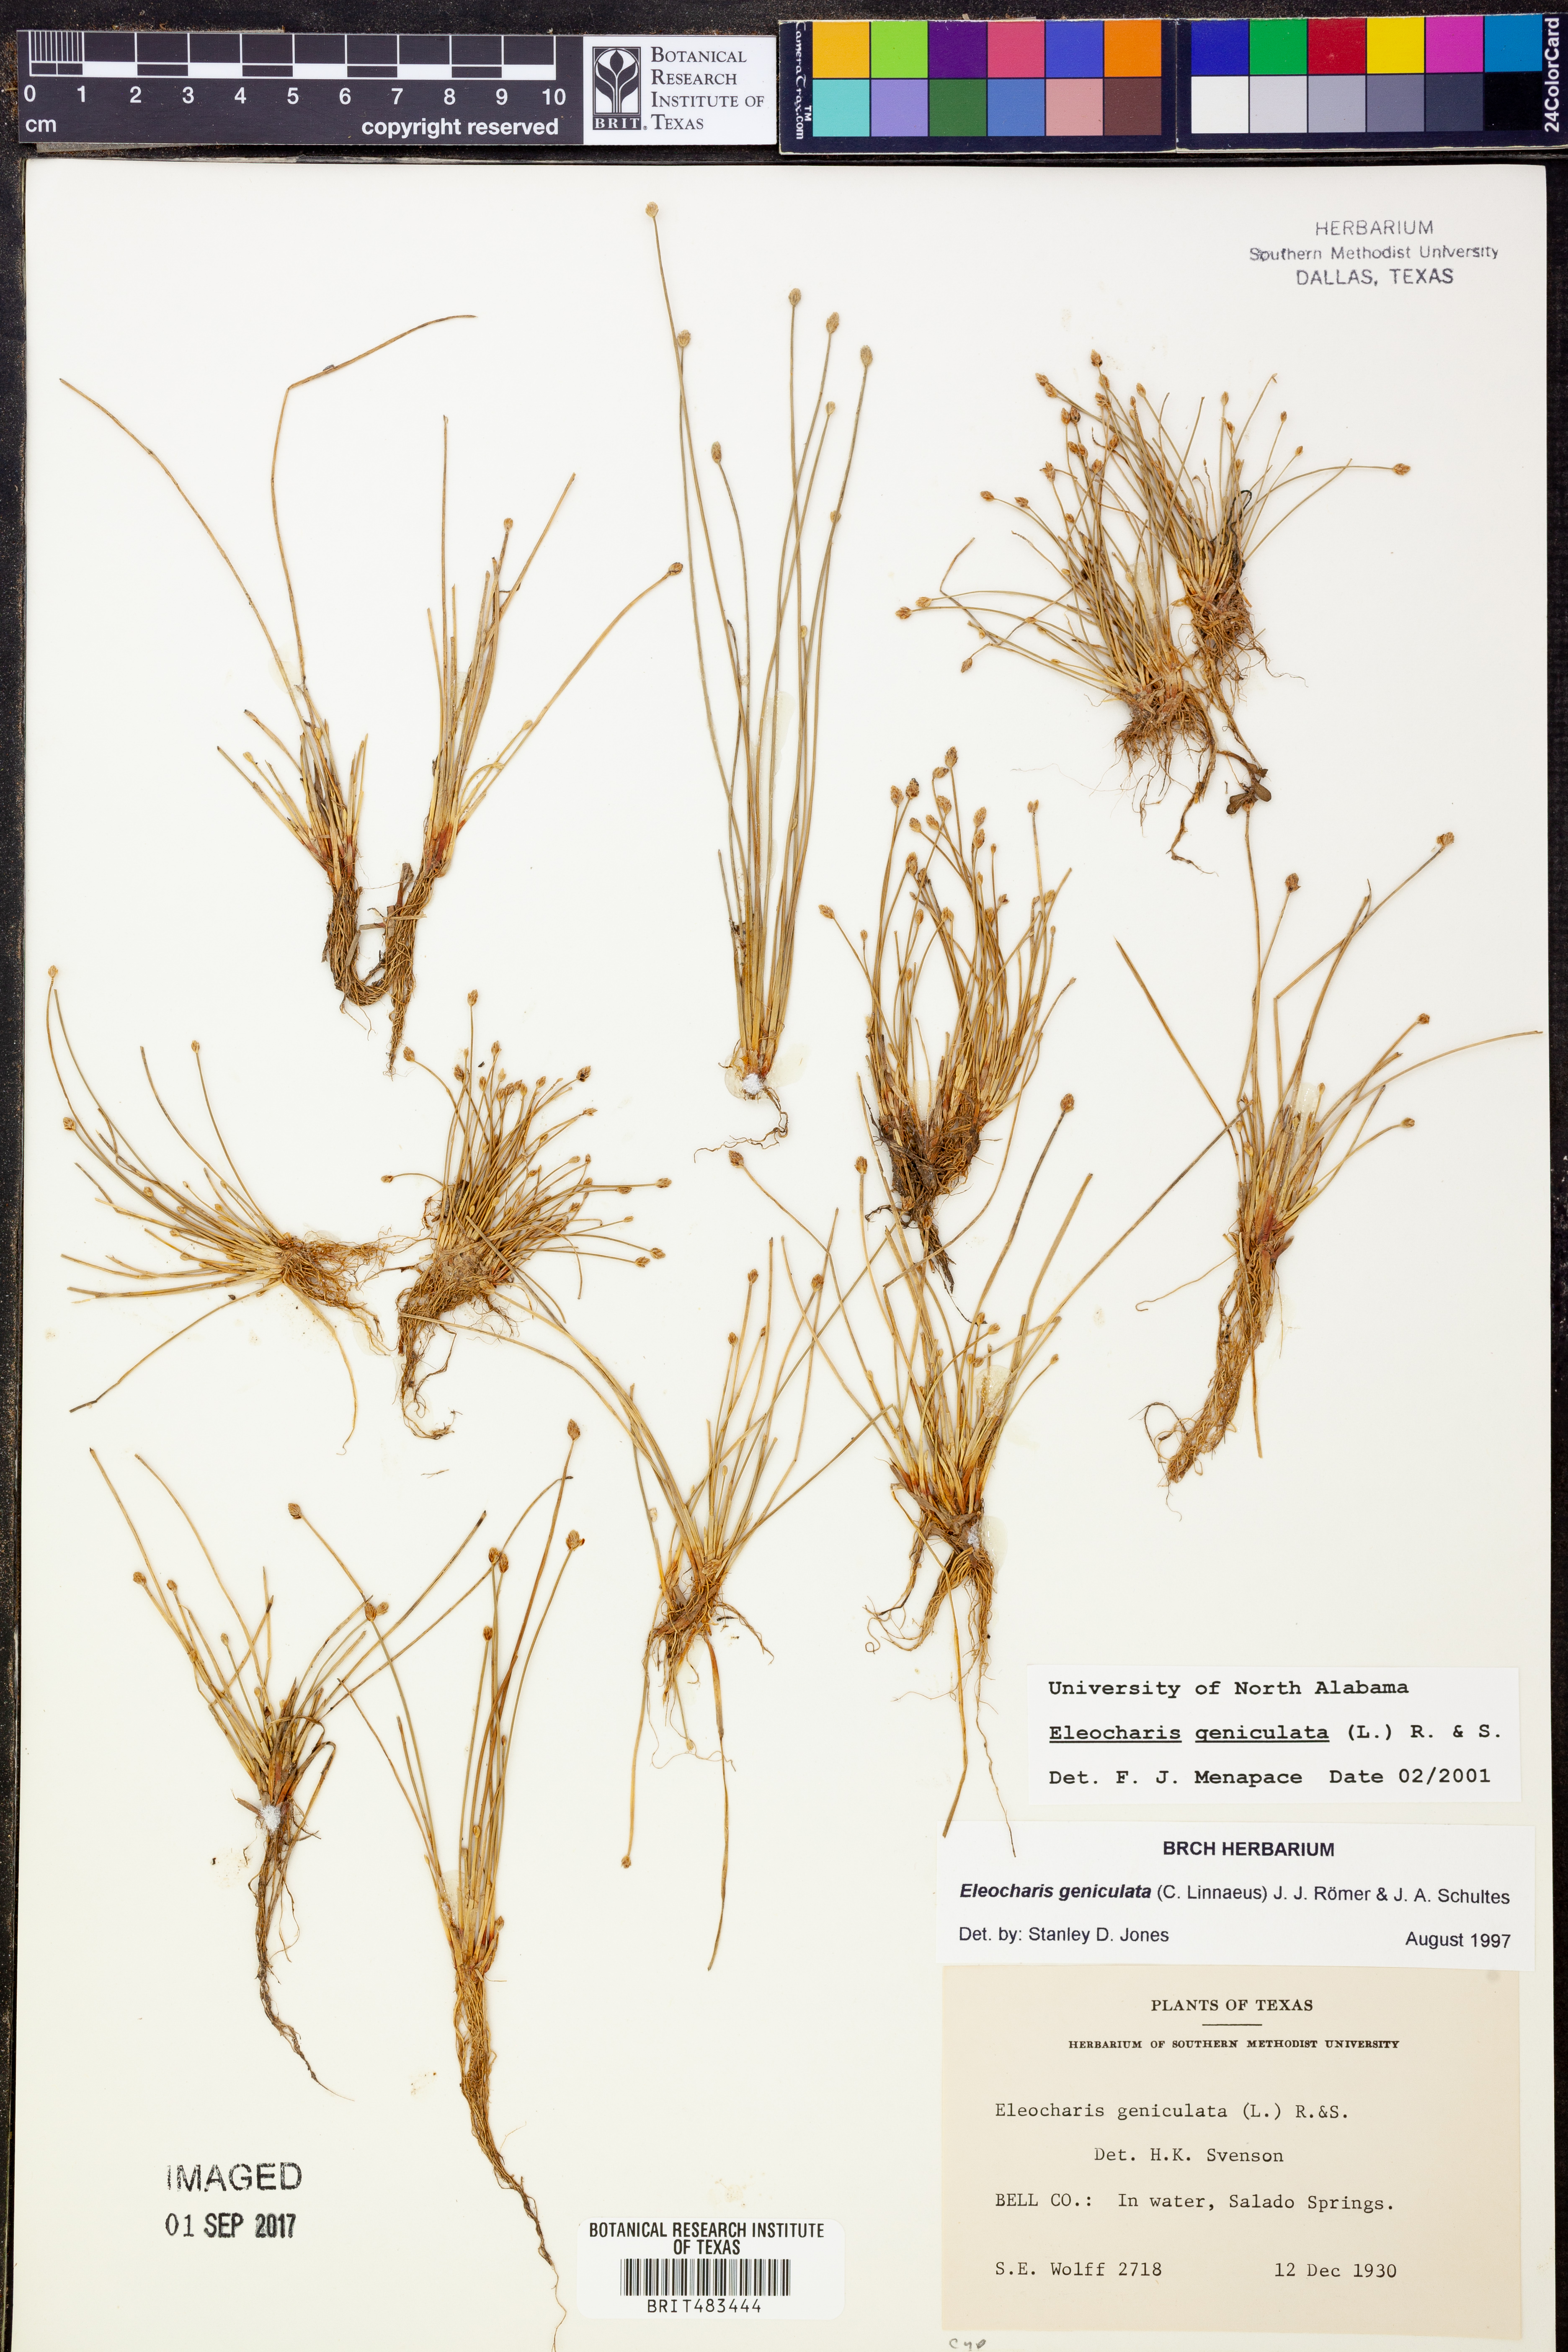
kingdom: Plantae
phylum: Tracheophyta
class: Liliopsida
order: Poales
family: Cyperaceae
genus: Eleocharis
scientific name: Eleocharis geniculata
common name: Canada spikesedge
